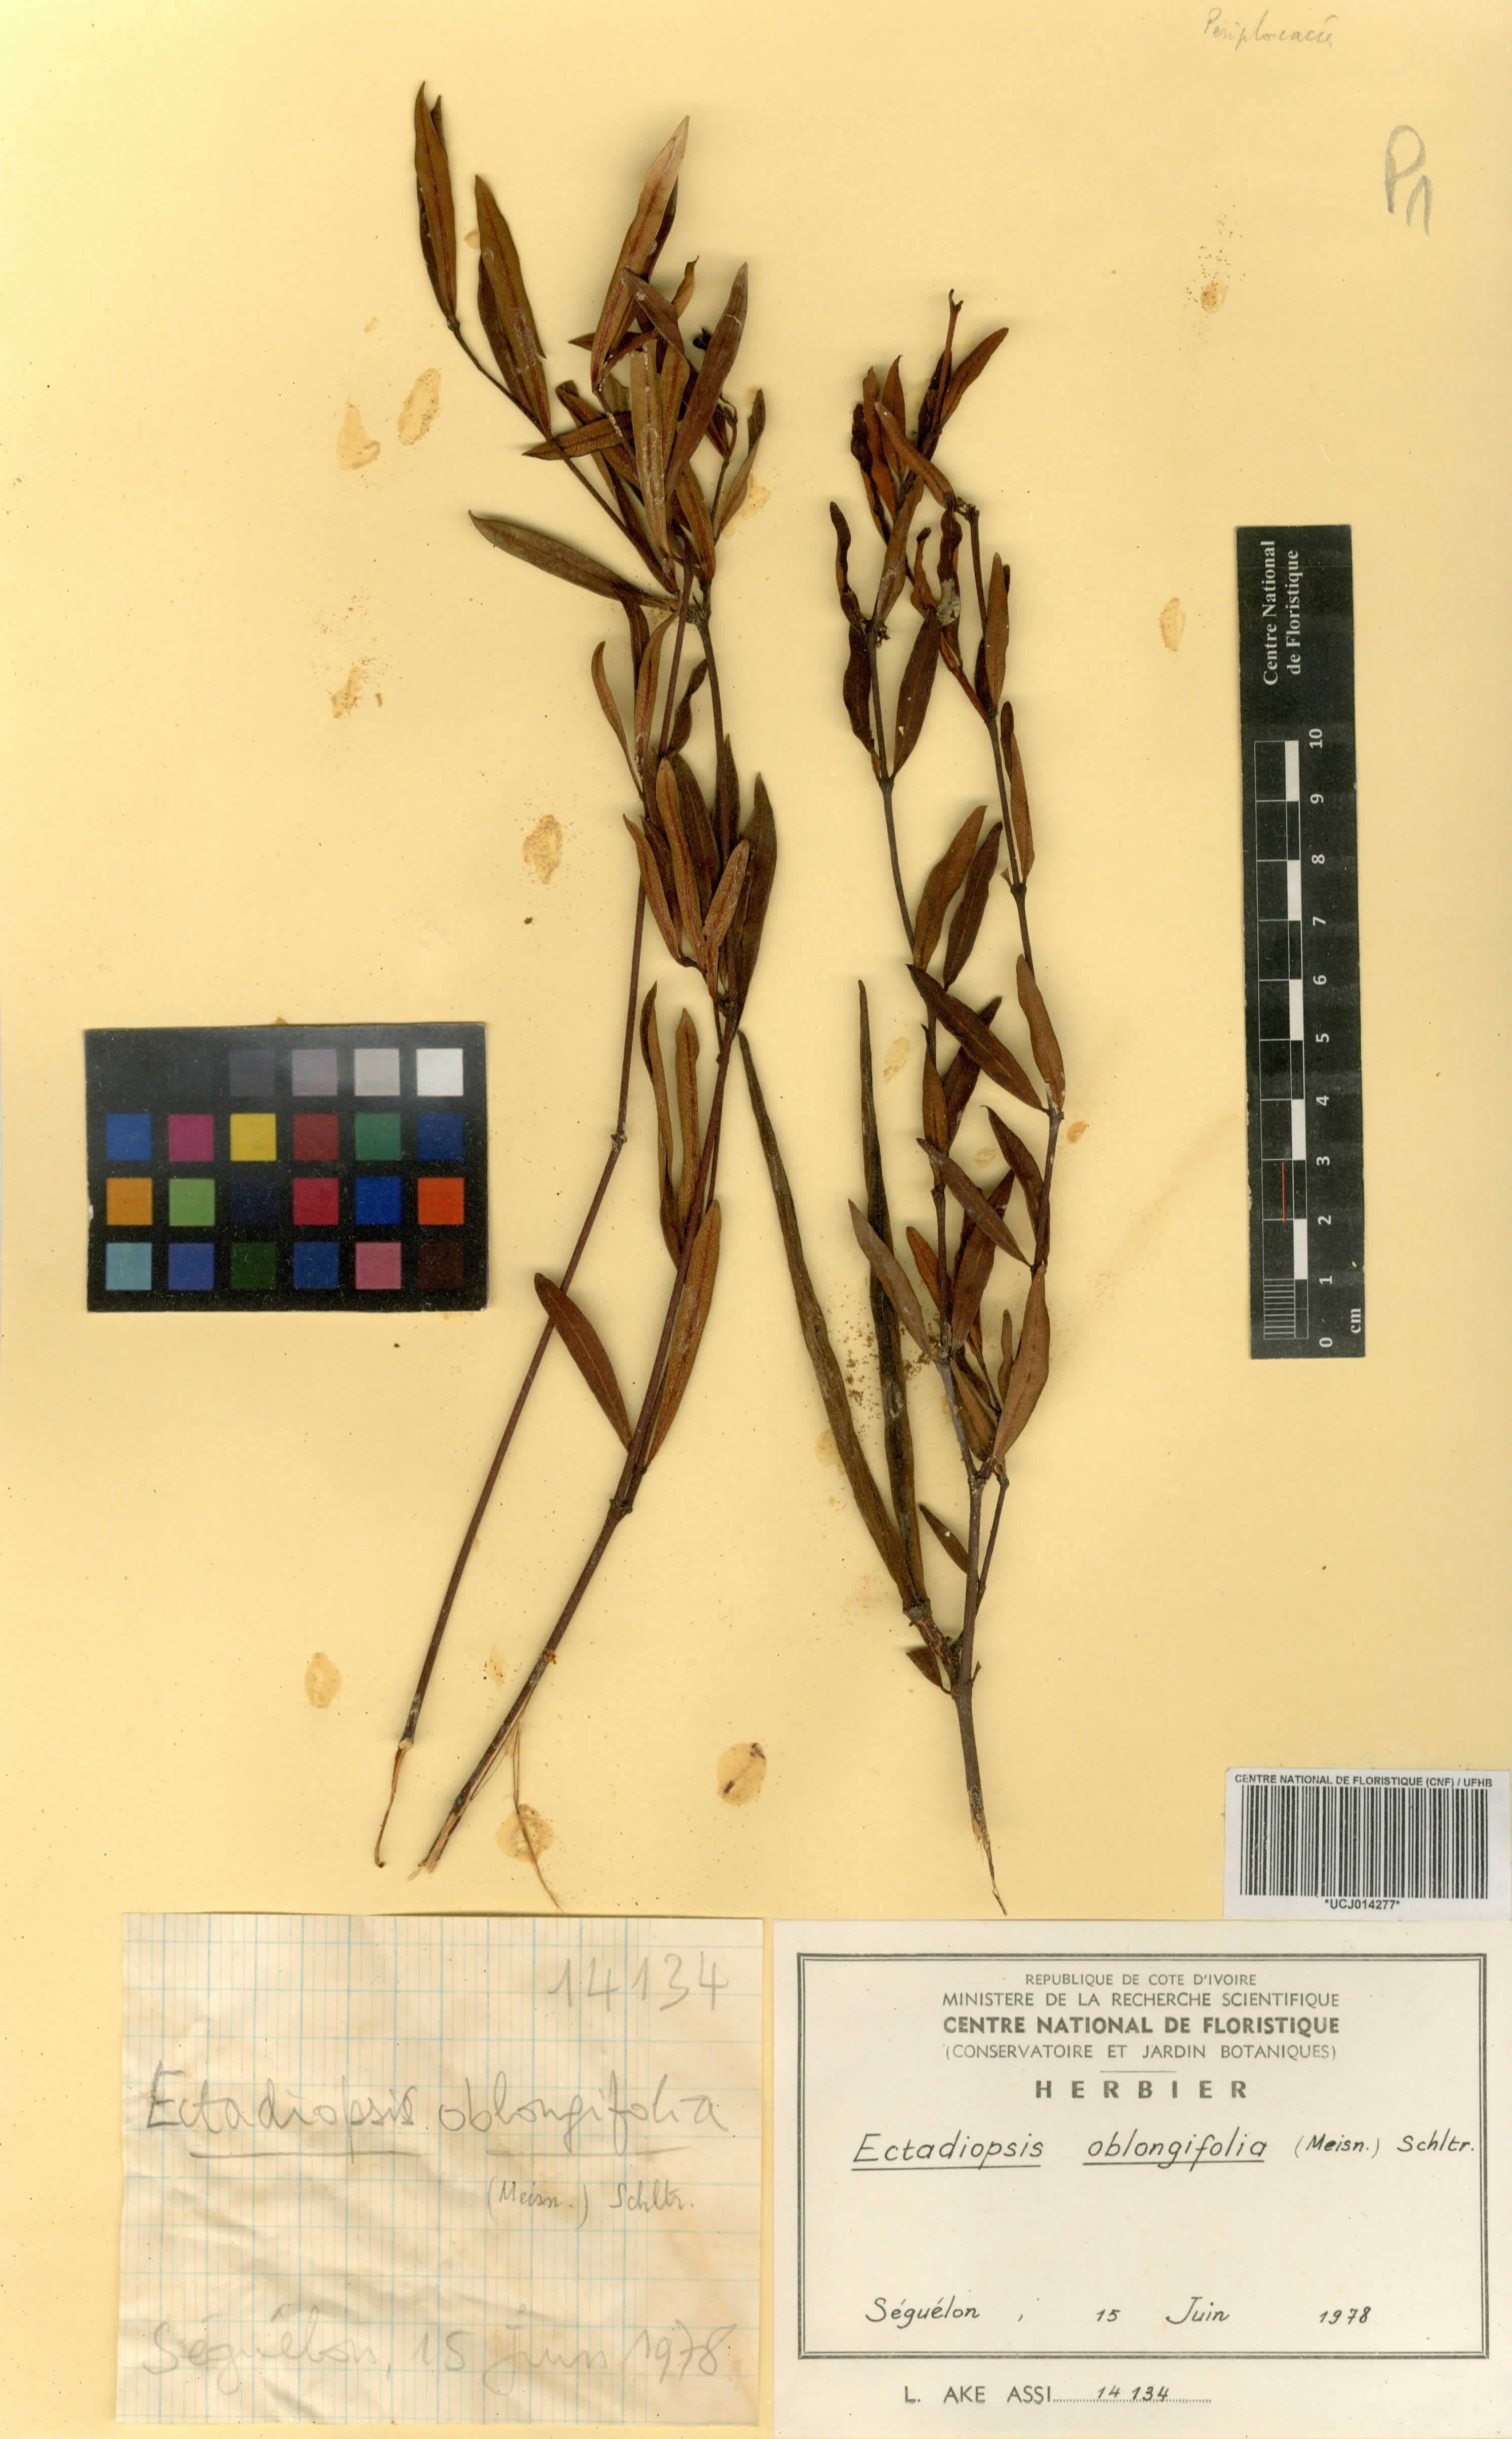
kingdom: Plantae
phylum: Tracheophyta
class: Magnoliopsida
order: Gentianales
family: Apocynaceae
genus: Cryptolepis
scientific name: Cryptolepis oblongifolia
